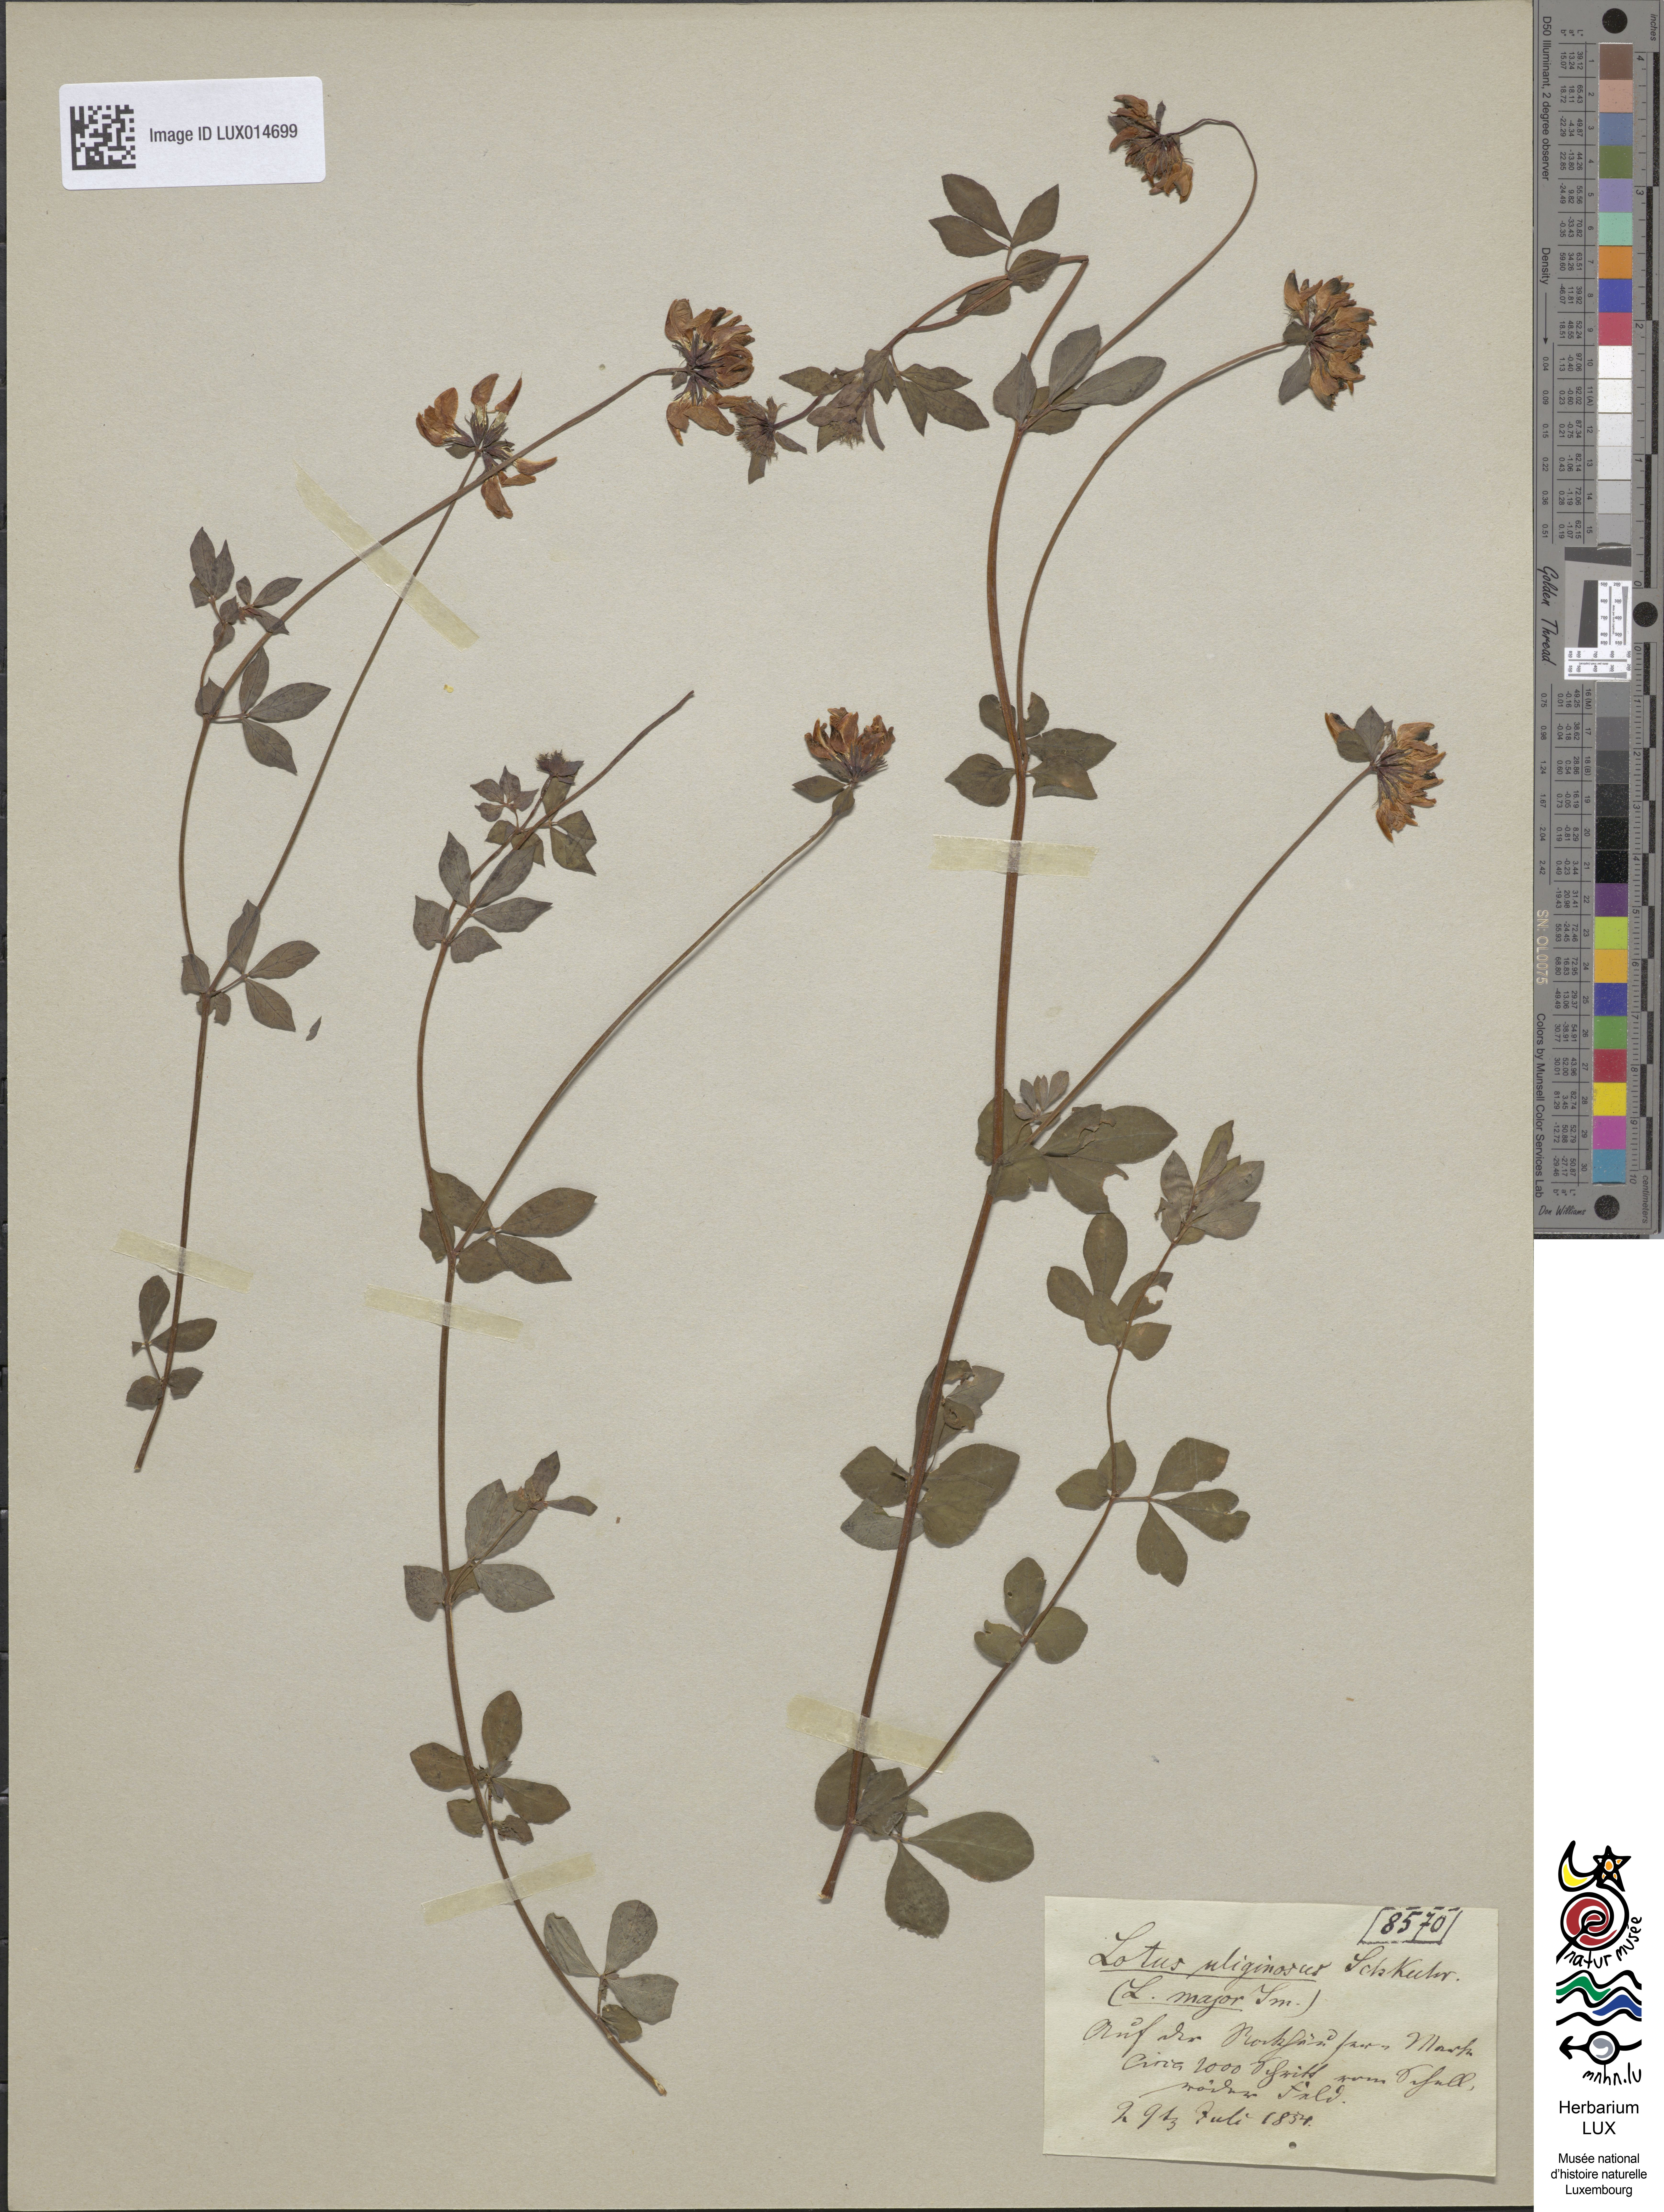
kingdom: Plantae
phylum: Tracheophyta
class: Magnoliopsida
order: Fabales
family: Fabaceae
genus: Lotus
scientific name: Lotus pedunculatus
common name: Greater birdsfoot-trefoil
